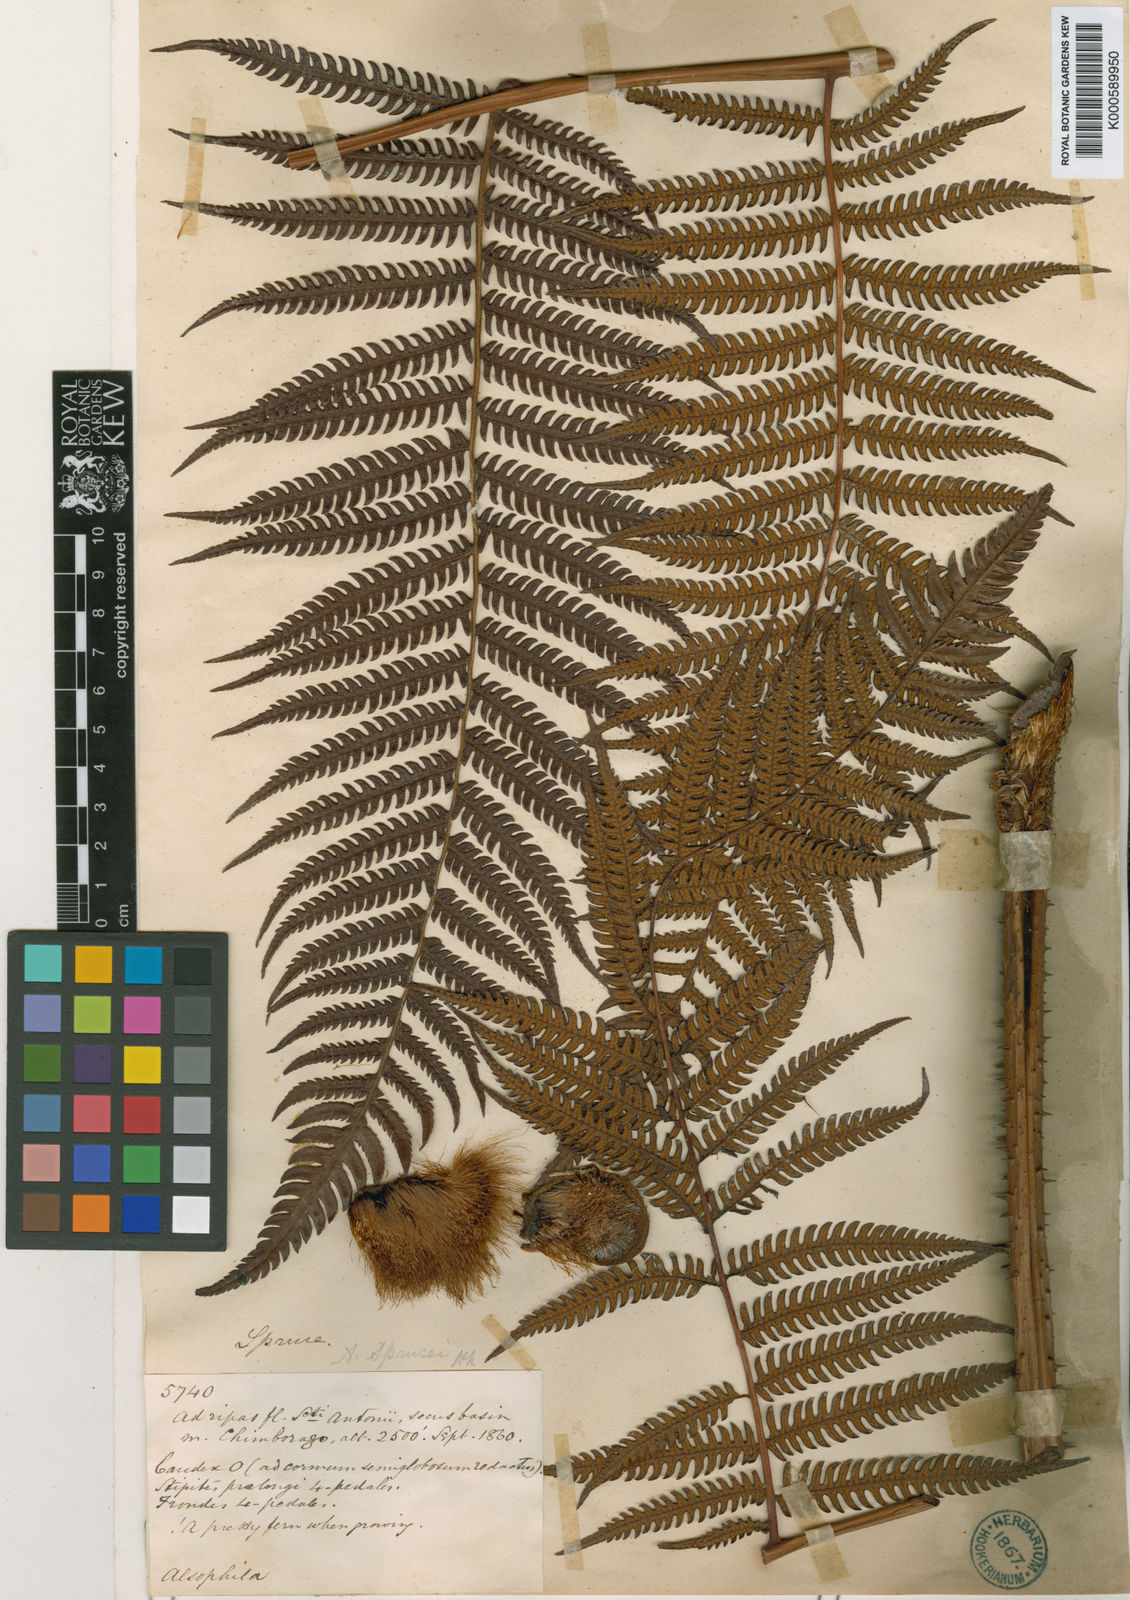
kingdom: Plantae
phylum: Tracheophyta
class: Polypodiopsida
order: Cyatheales
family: Cyatheaceae
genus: Alsophila
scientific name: Alsophila engelii
